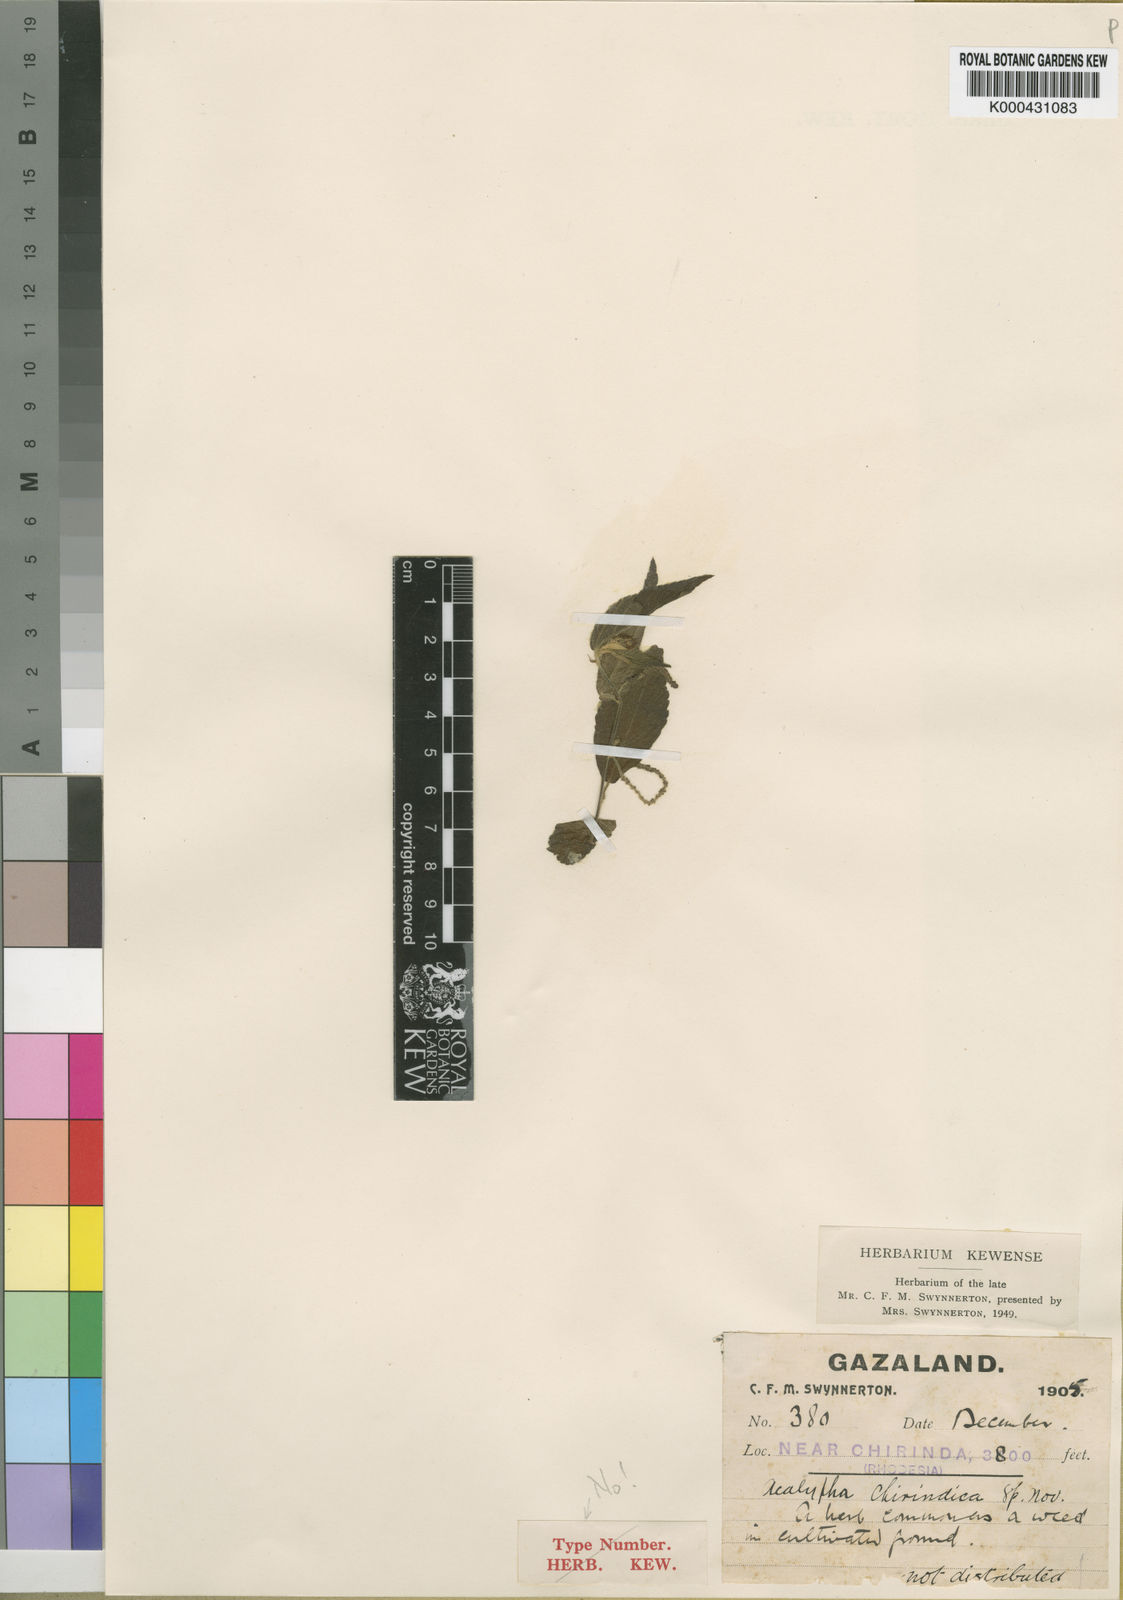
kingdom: Plantae
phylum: Tracheophyta
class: Magnoliopsida
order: Malpighiales
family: Euphorbiaceae
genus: Acalypha
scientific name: Acalypha chirindica
